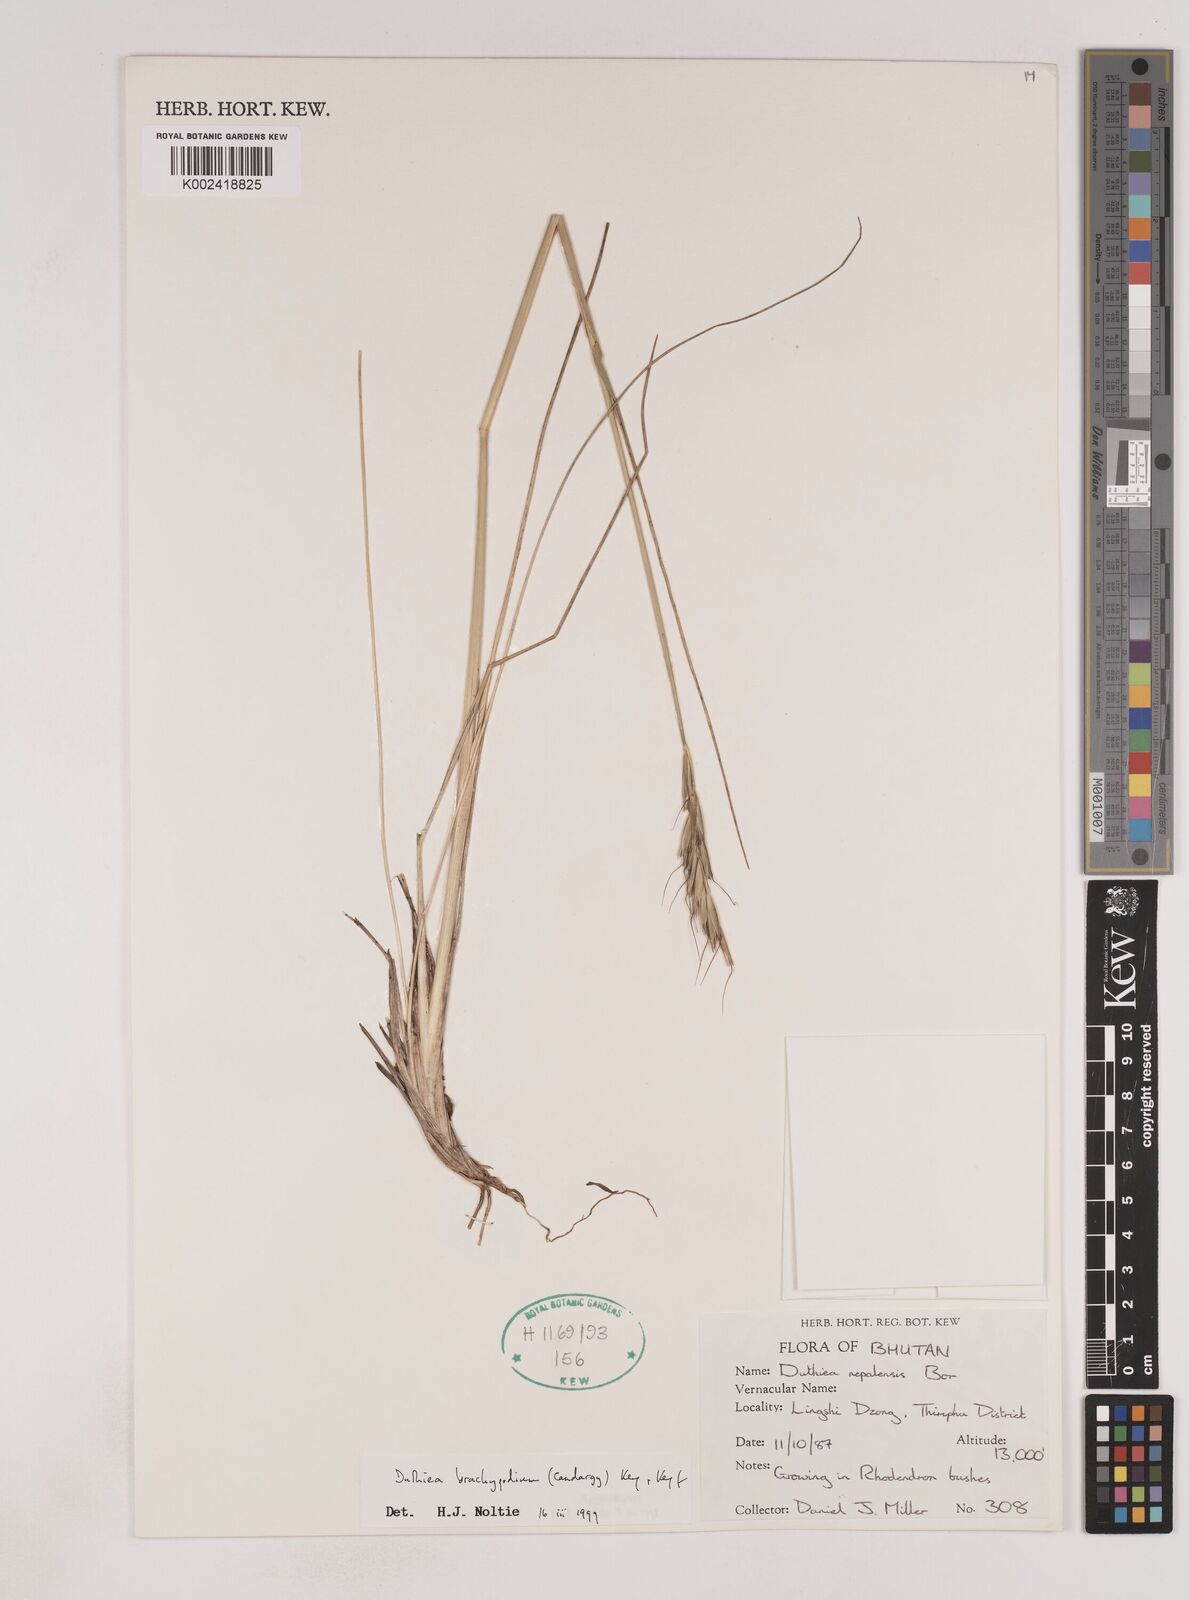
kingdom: Plantae
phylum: Tracheophyta
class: Liliopsida
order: Poales
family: Poaceae
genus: Duthiea
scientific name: Duthiea brachypodium
